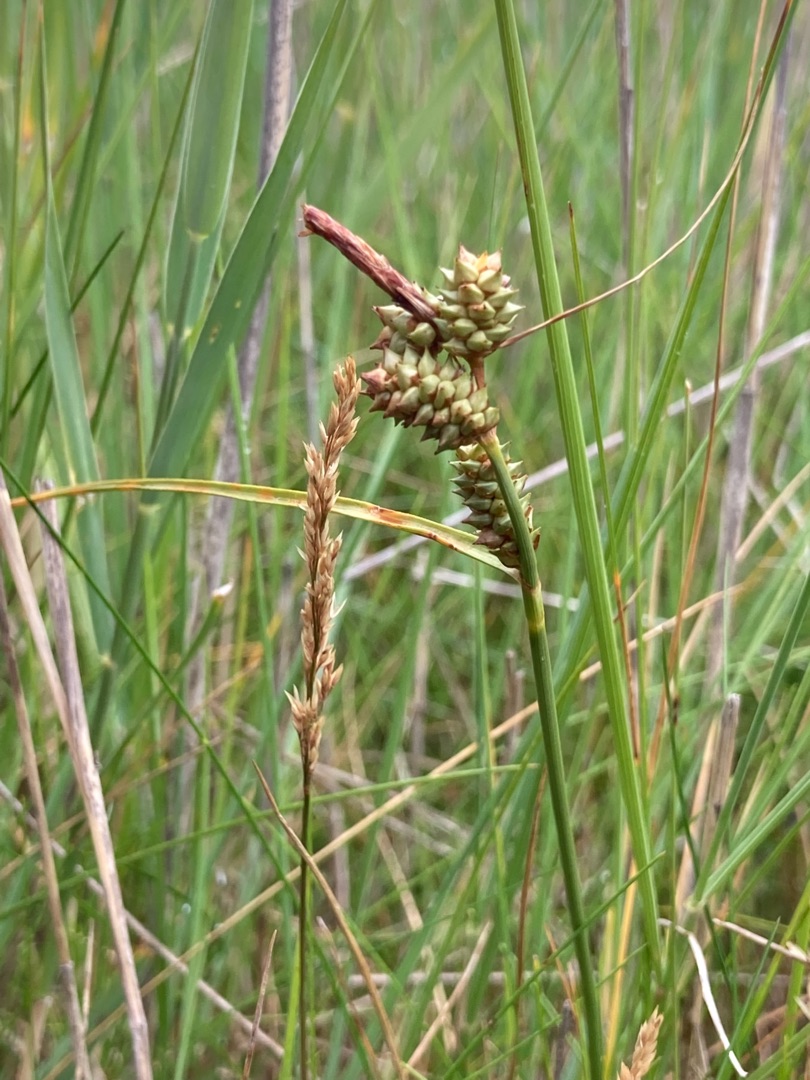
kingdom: Plantae
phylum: Tracheophyta
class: Liliopsida
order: Poales
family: Cyperaceae
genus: Carex
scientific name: Carex extensa
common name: Udspilet star
